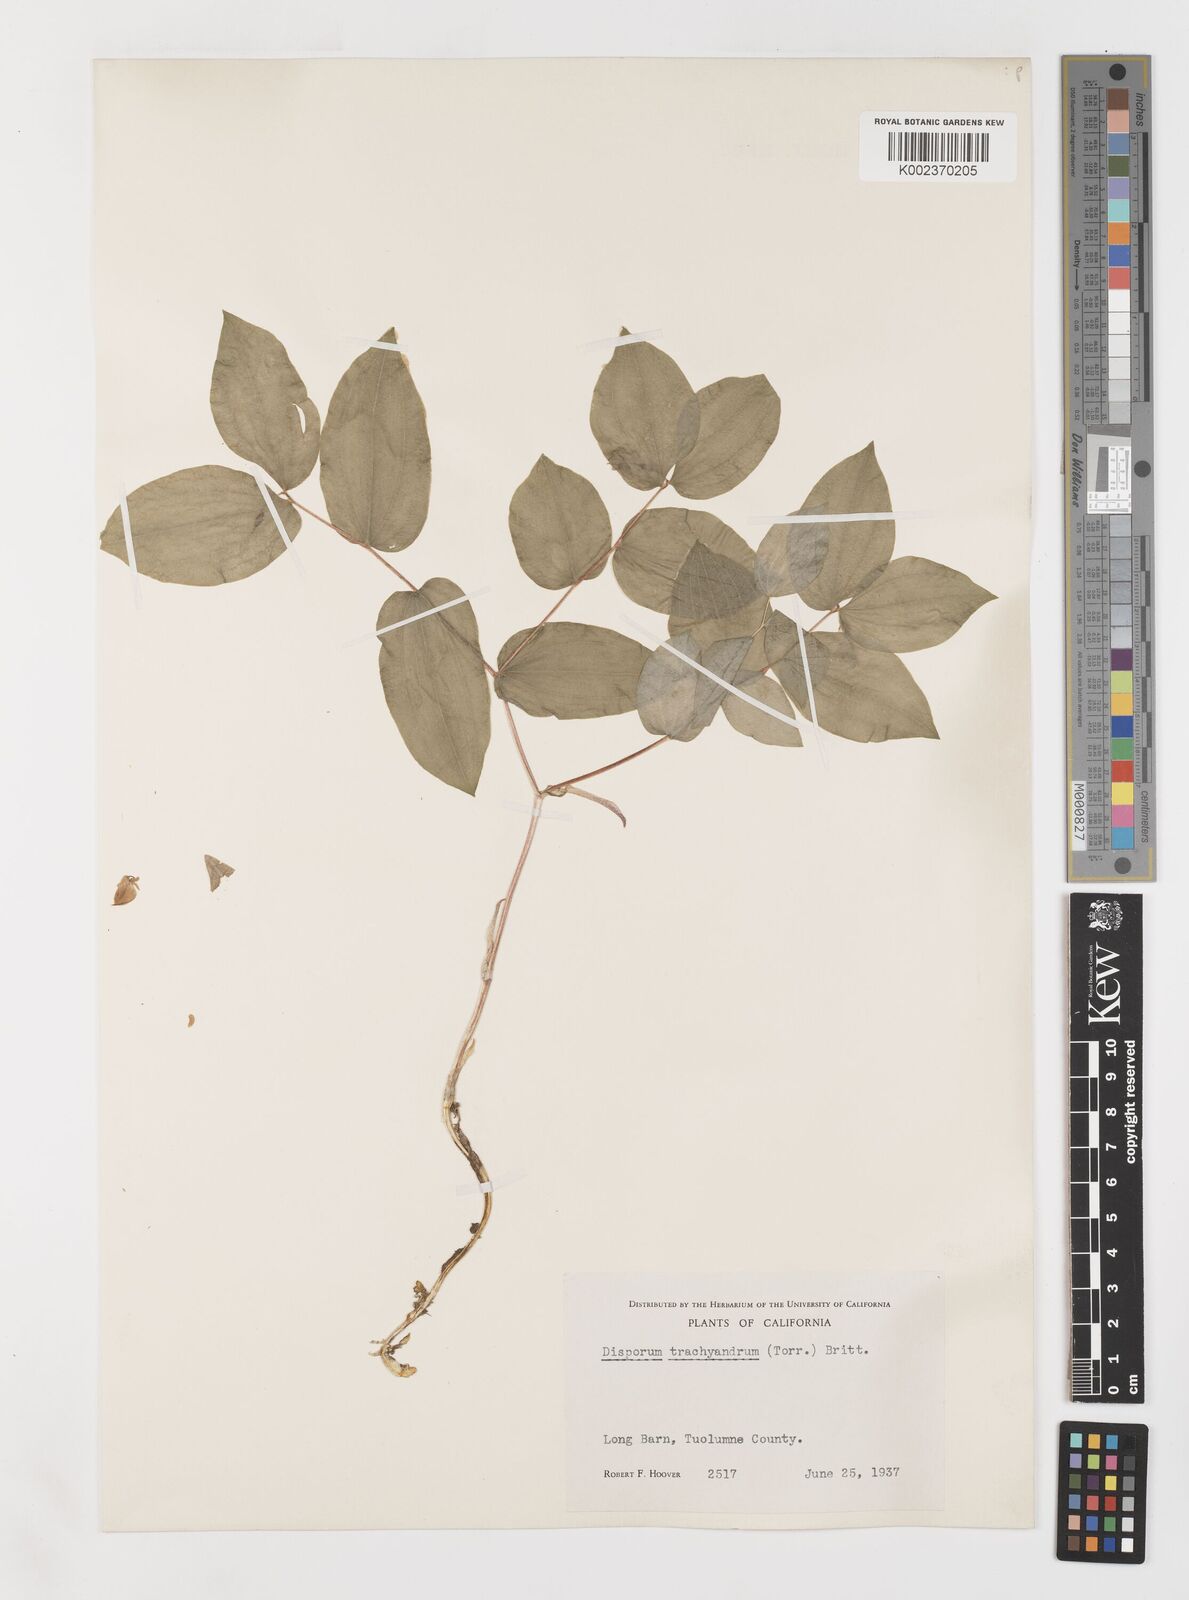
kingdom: Plantae
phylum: Tracheophyta
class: Liliopsida
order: Liliales
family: Liliaceae
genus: Prosartes
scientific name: Prosartes lanuginosa
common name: Hairy mandarin
